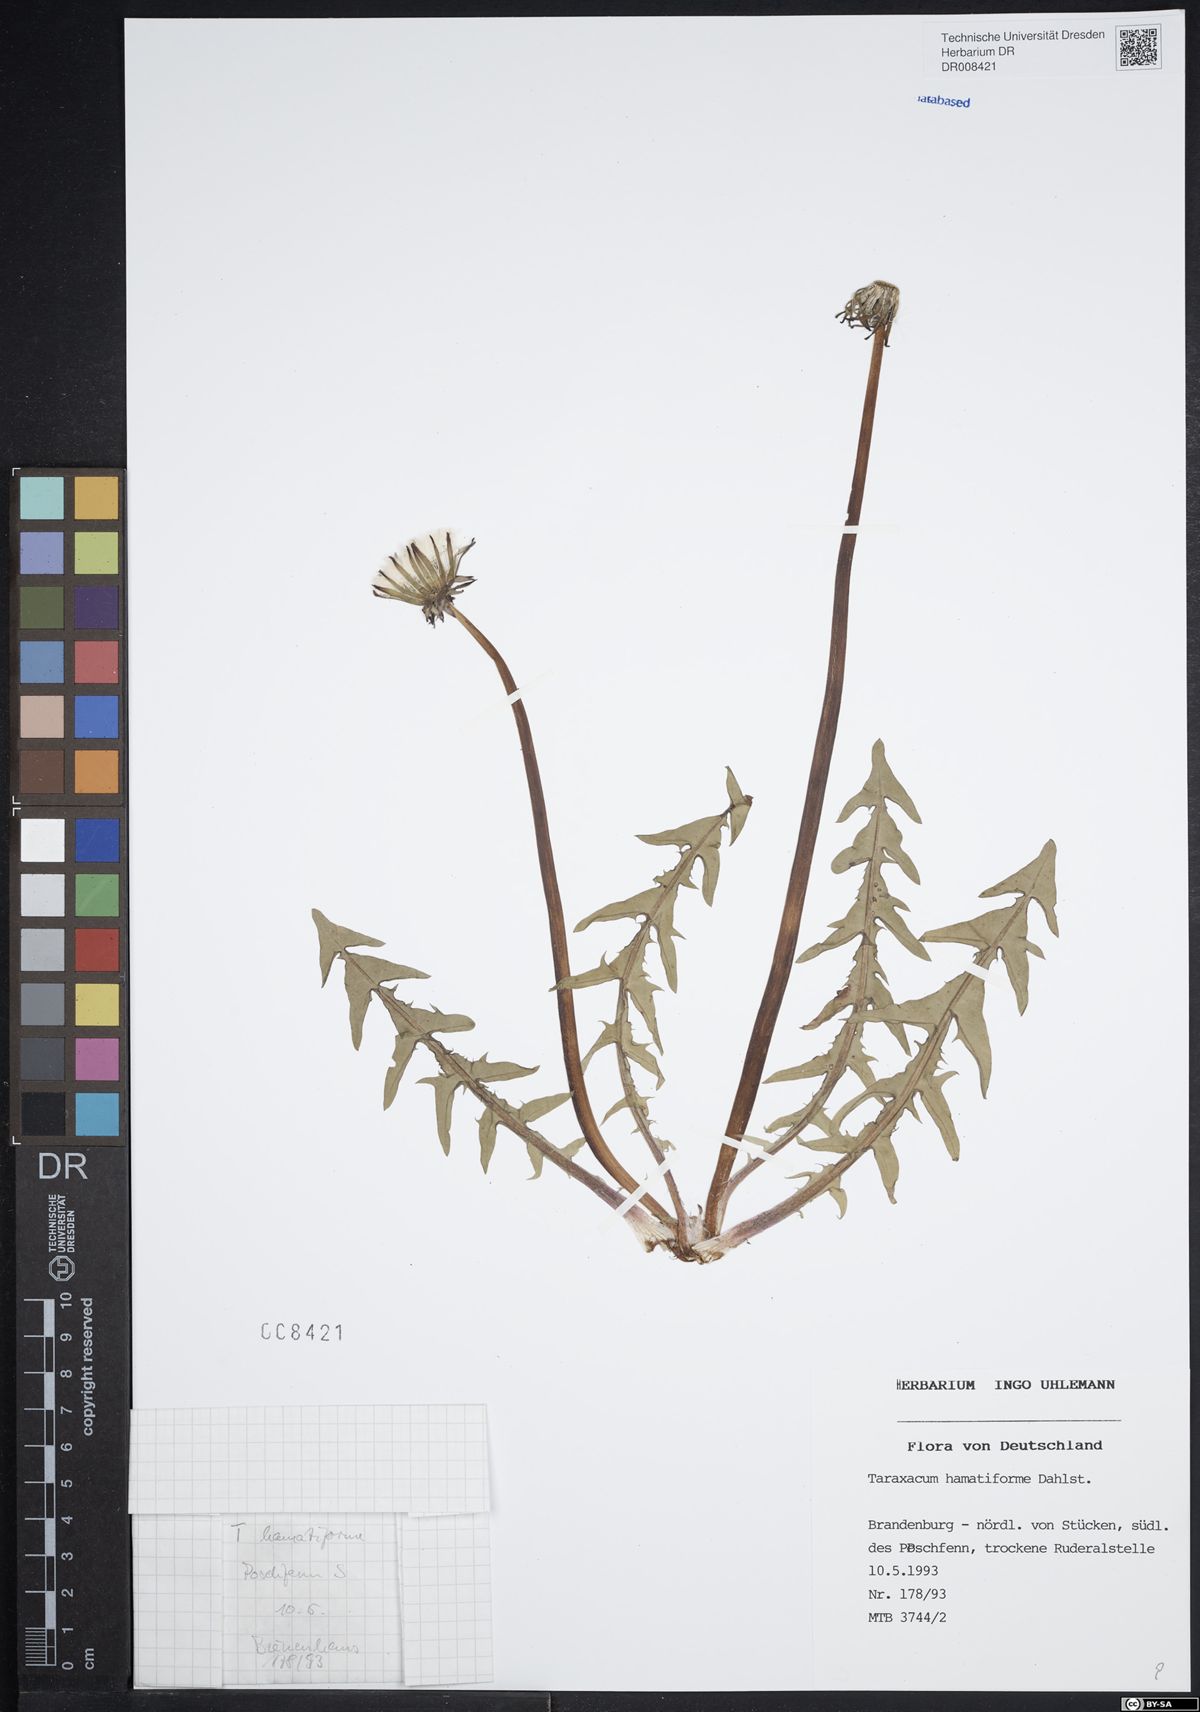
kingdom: Plantae
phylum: Tracheophyta
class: Magnoliopsida
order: Asterales
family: Asteraceae
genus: Taraxacum
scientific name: Taraxacum hamatiforme
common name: Asymmetrical hook-lobed dandelion
